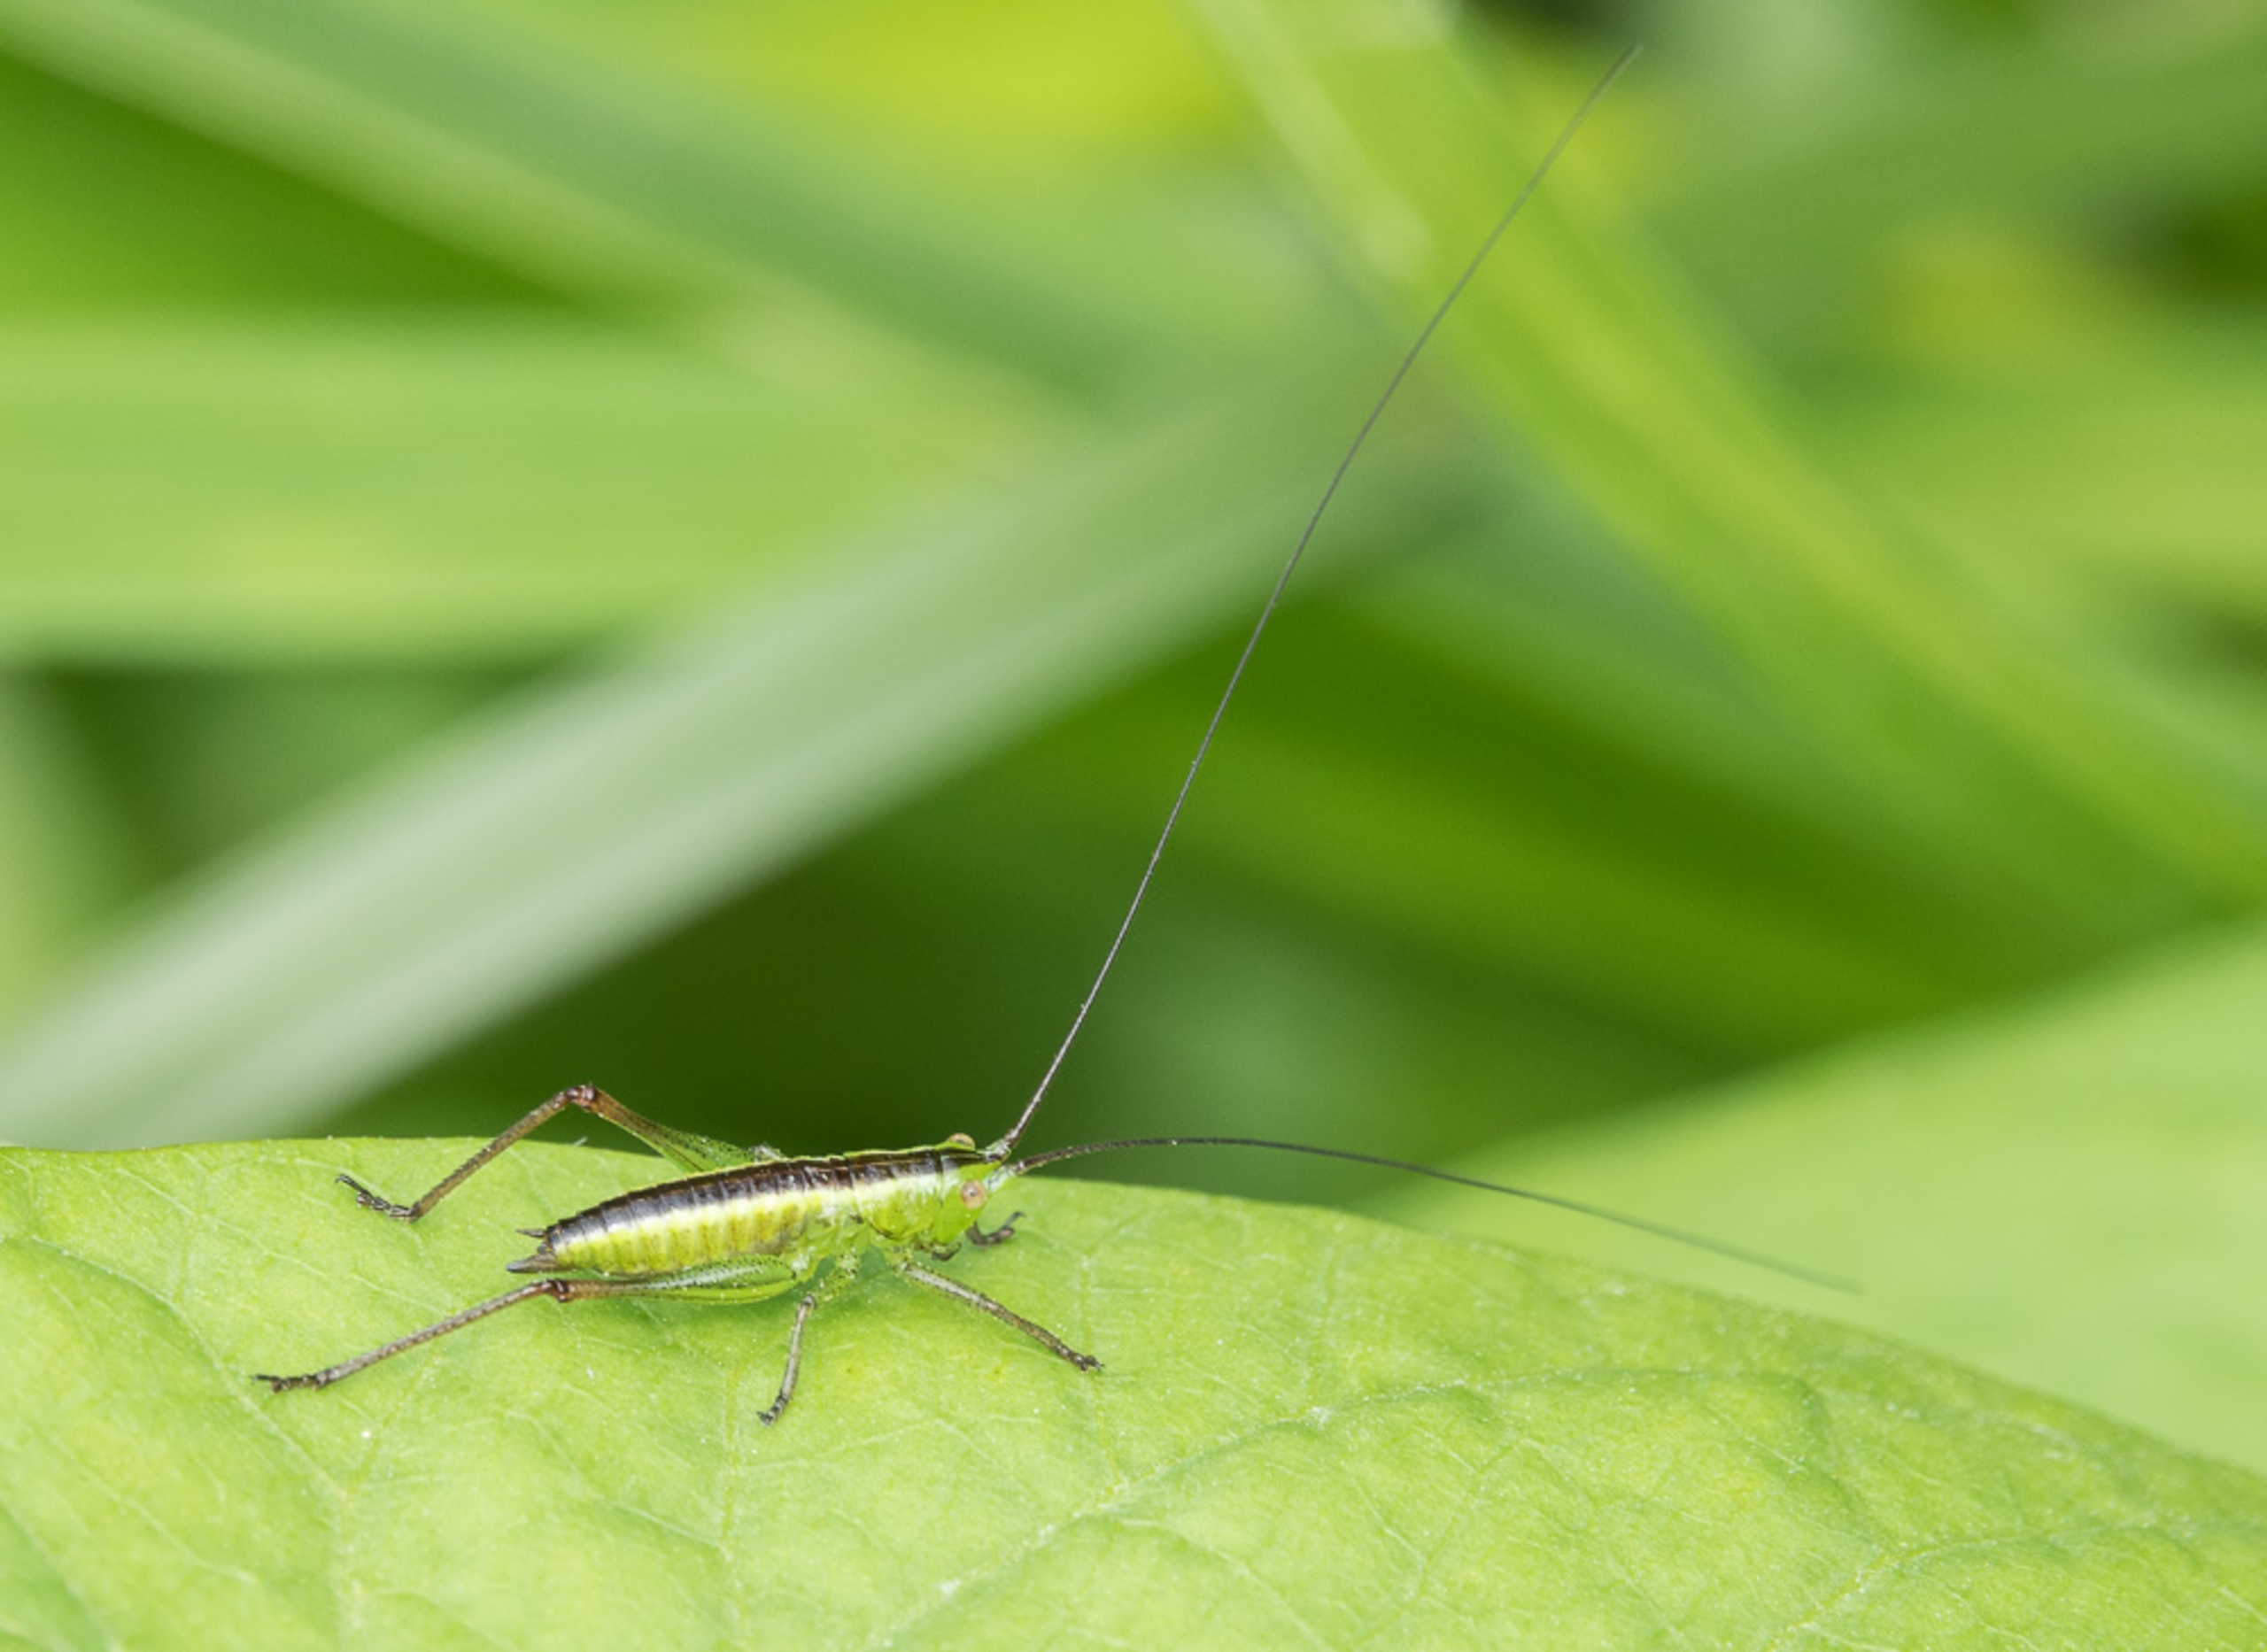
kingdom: Animalia
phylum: Arthropoda
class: Insecta
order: Orthoptera
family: Tettigoniidae
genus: Conocephalus
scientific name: Conocephalus dorsalis
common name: Sivgræshoppe
